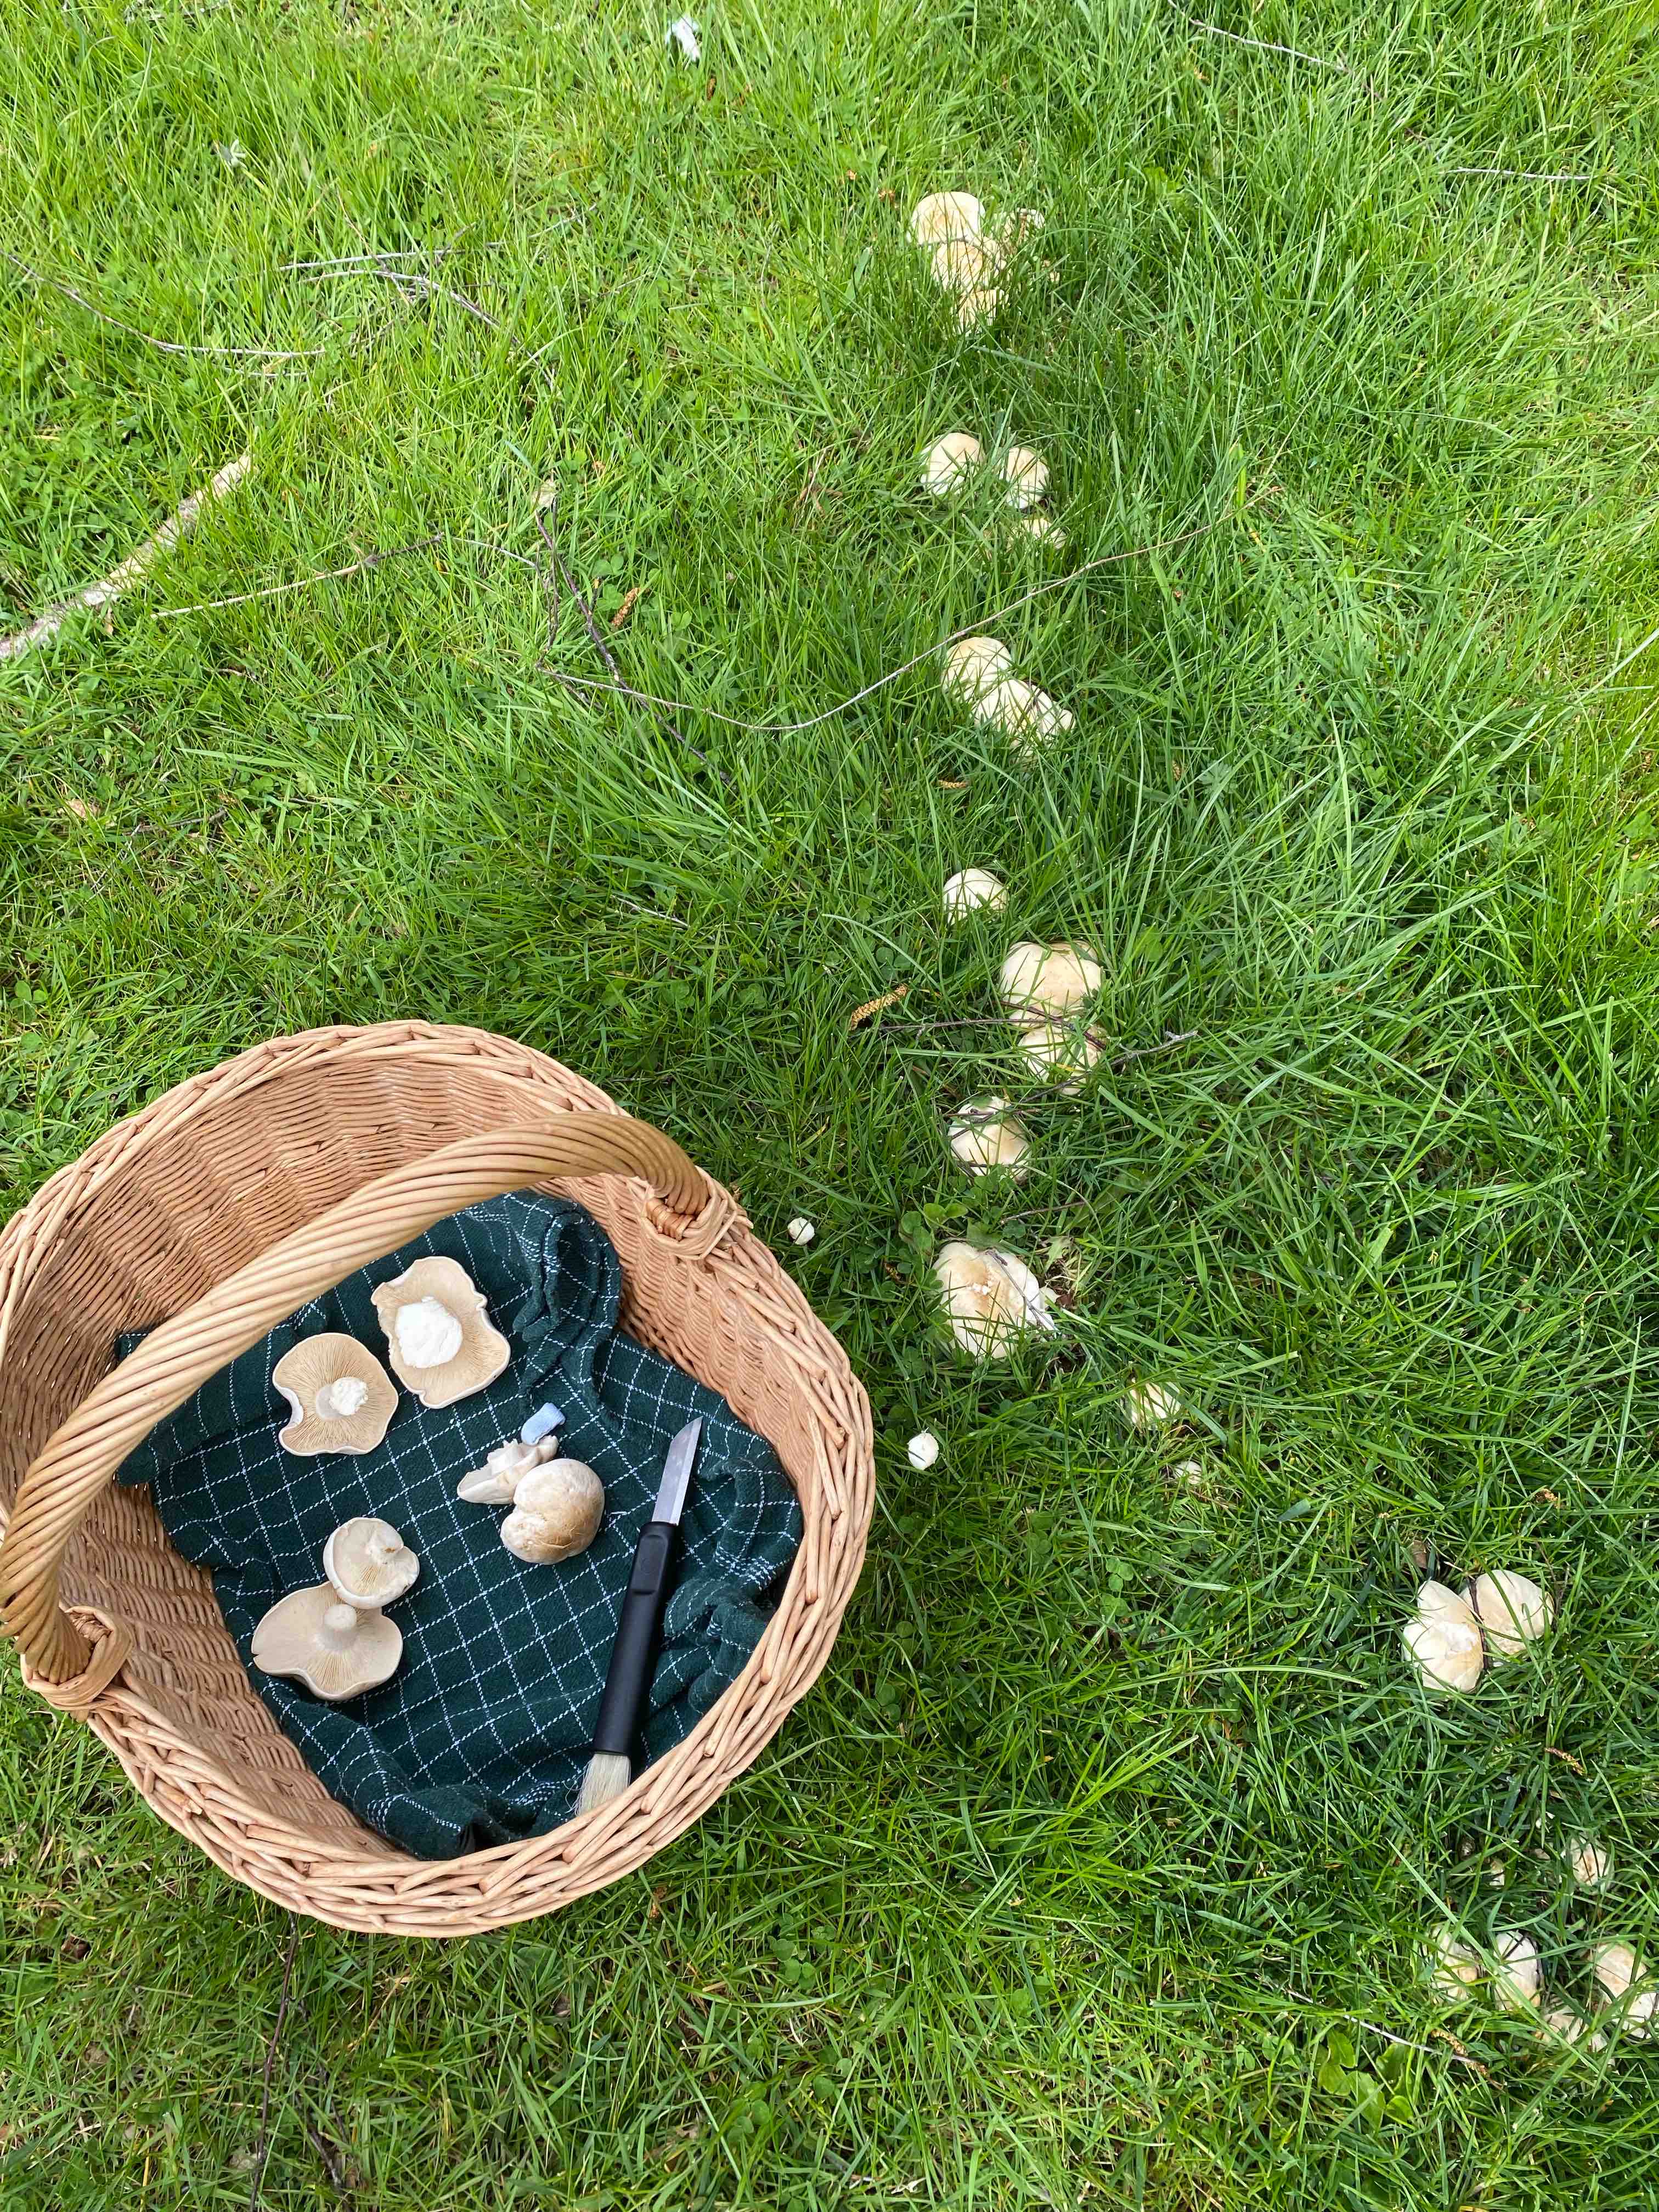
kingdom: Fungi
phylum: Basidiomycota
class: Agaricomycetes
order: Agaricales
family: Lyophyllaceae
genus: Calocybe
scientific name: Calocybe gambosa
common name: vårmusseron
